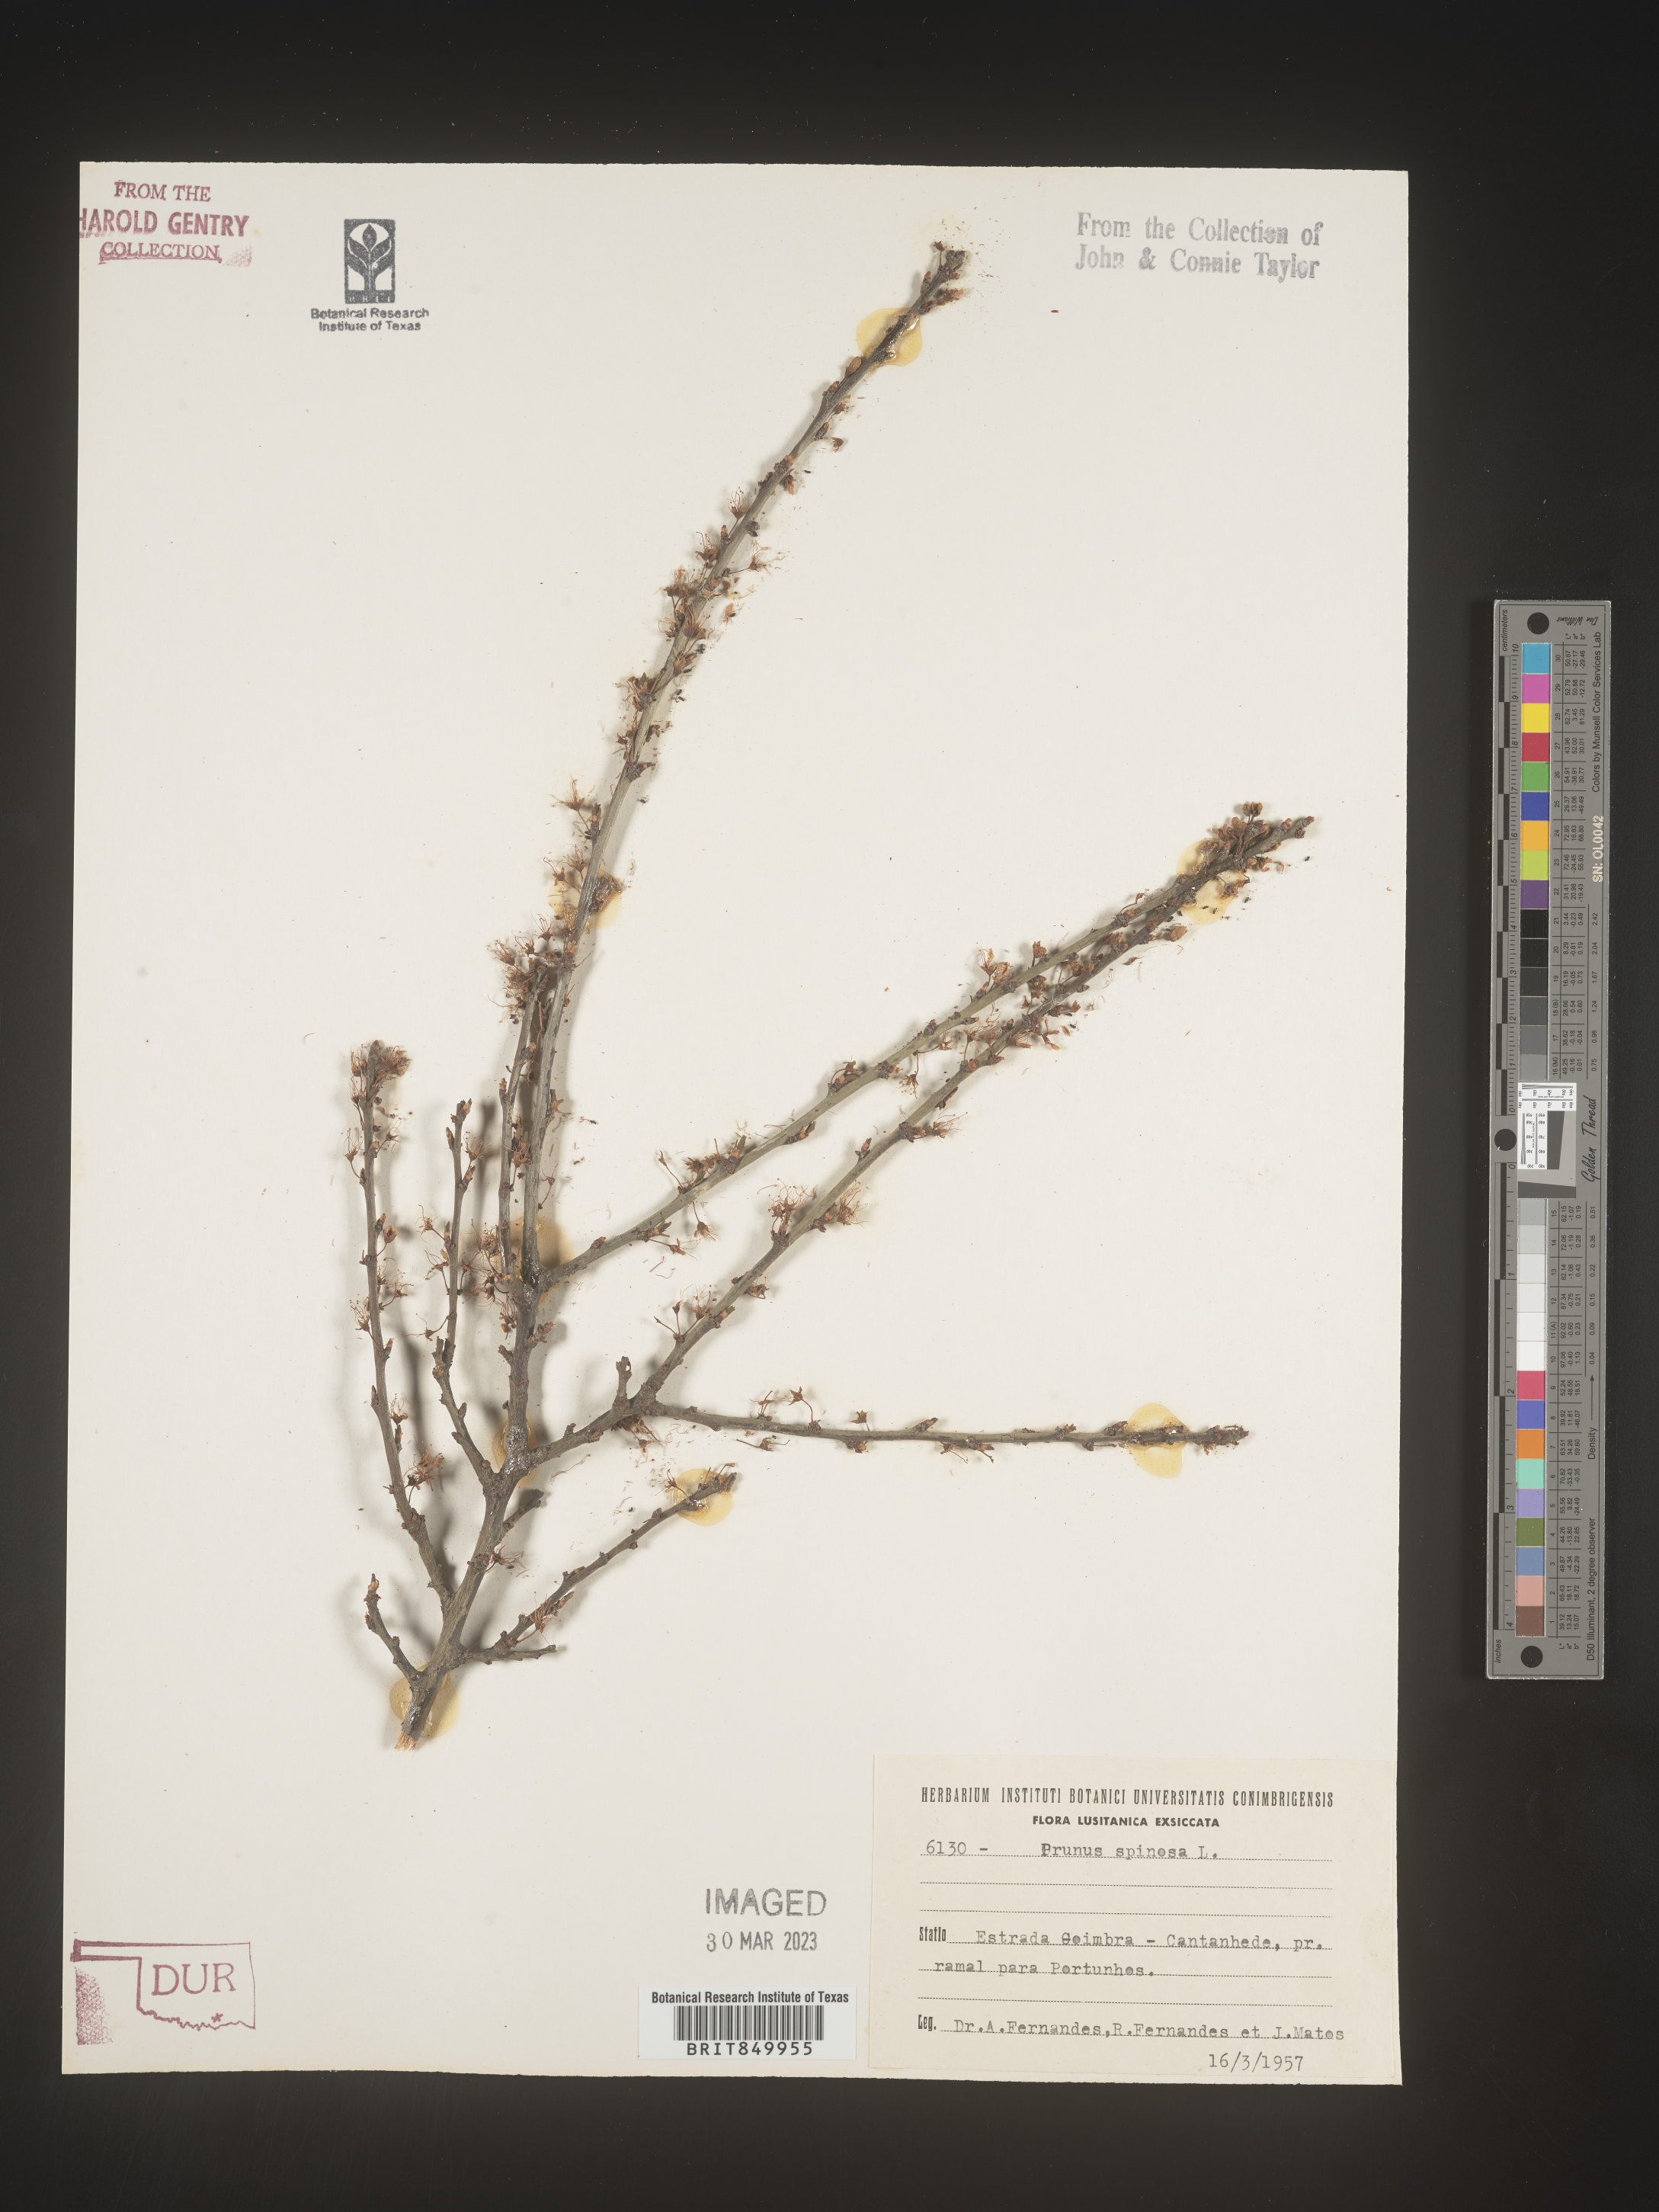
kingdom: Plantae
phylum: Tracheophyta
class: Magnoliopsida
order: Rosales
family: Rosaceae
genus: Prunus
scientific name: Prunus
